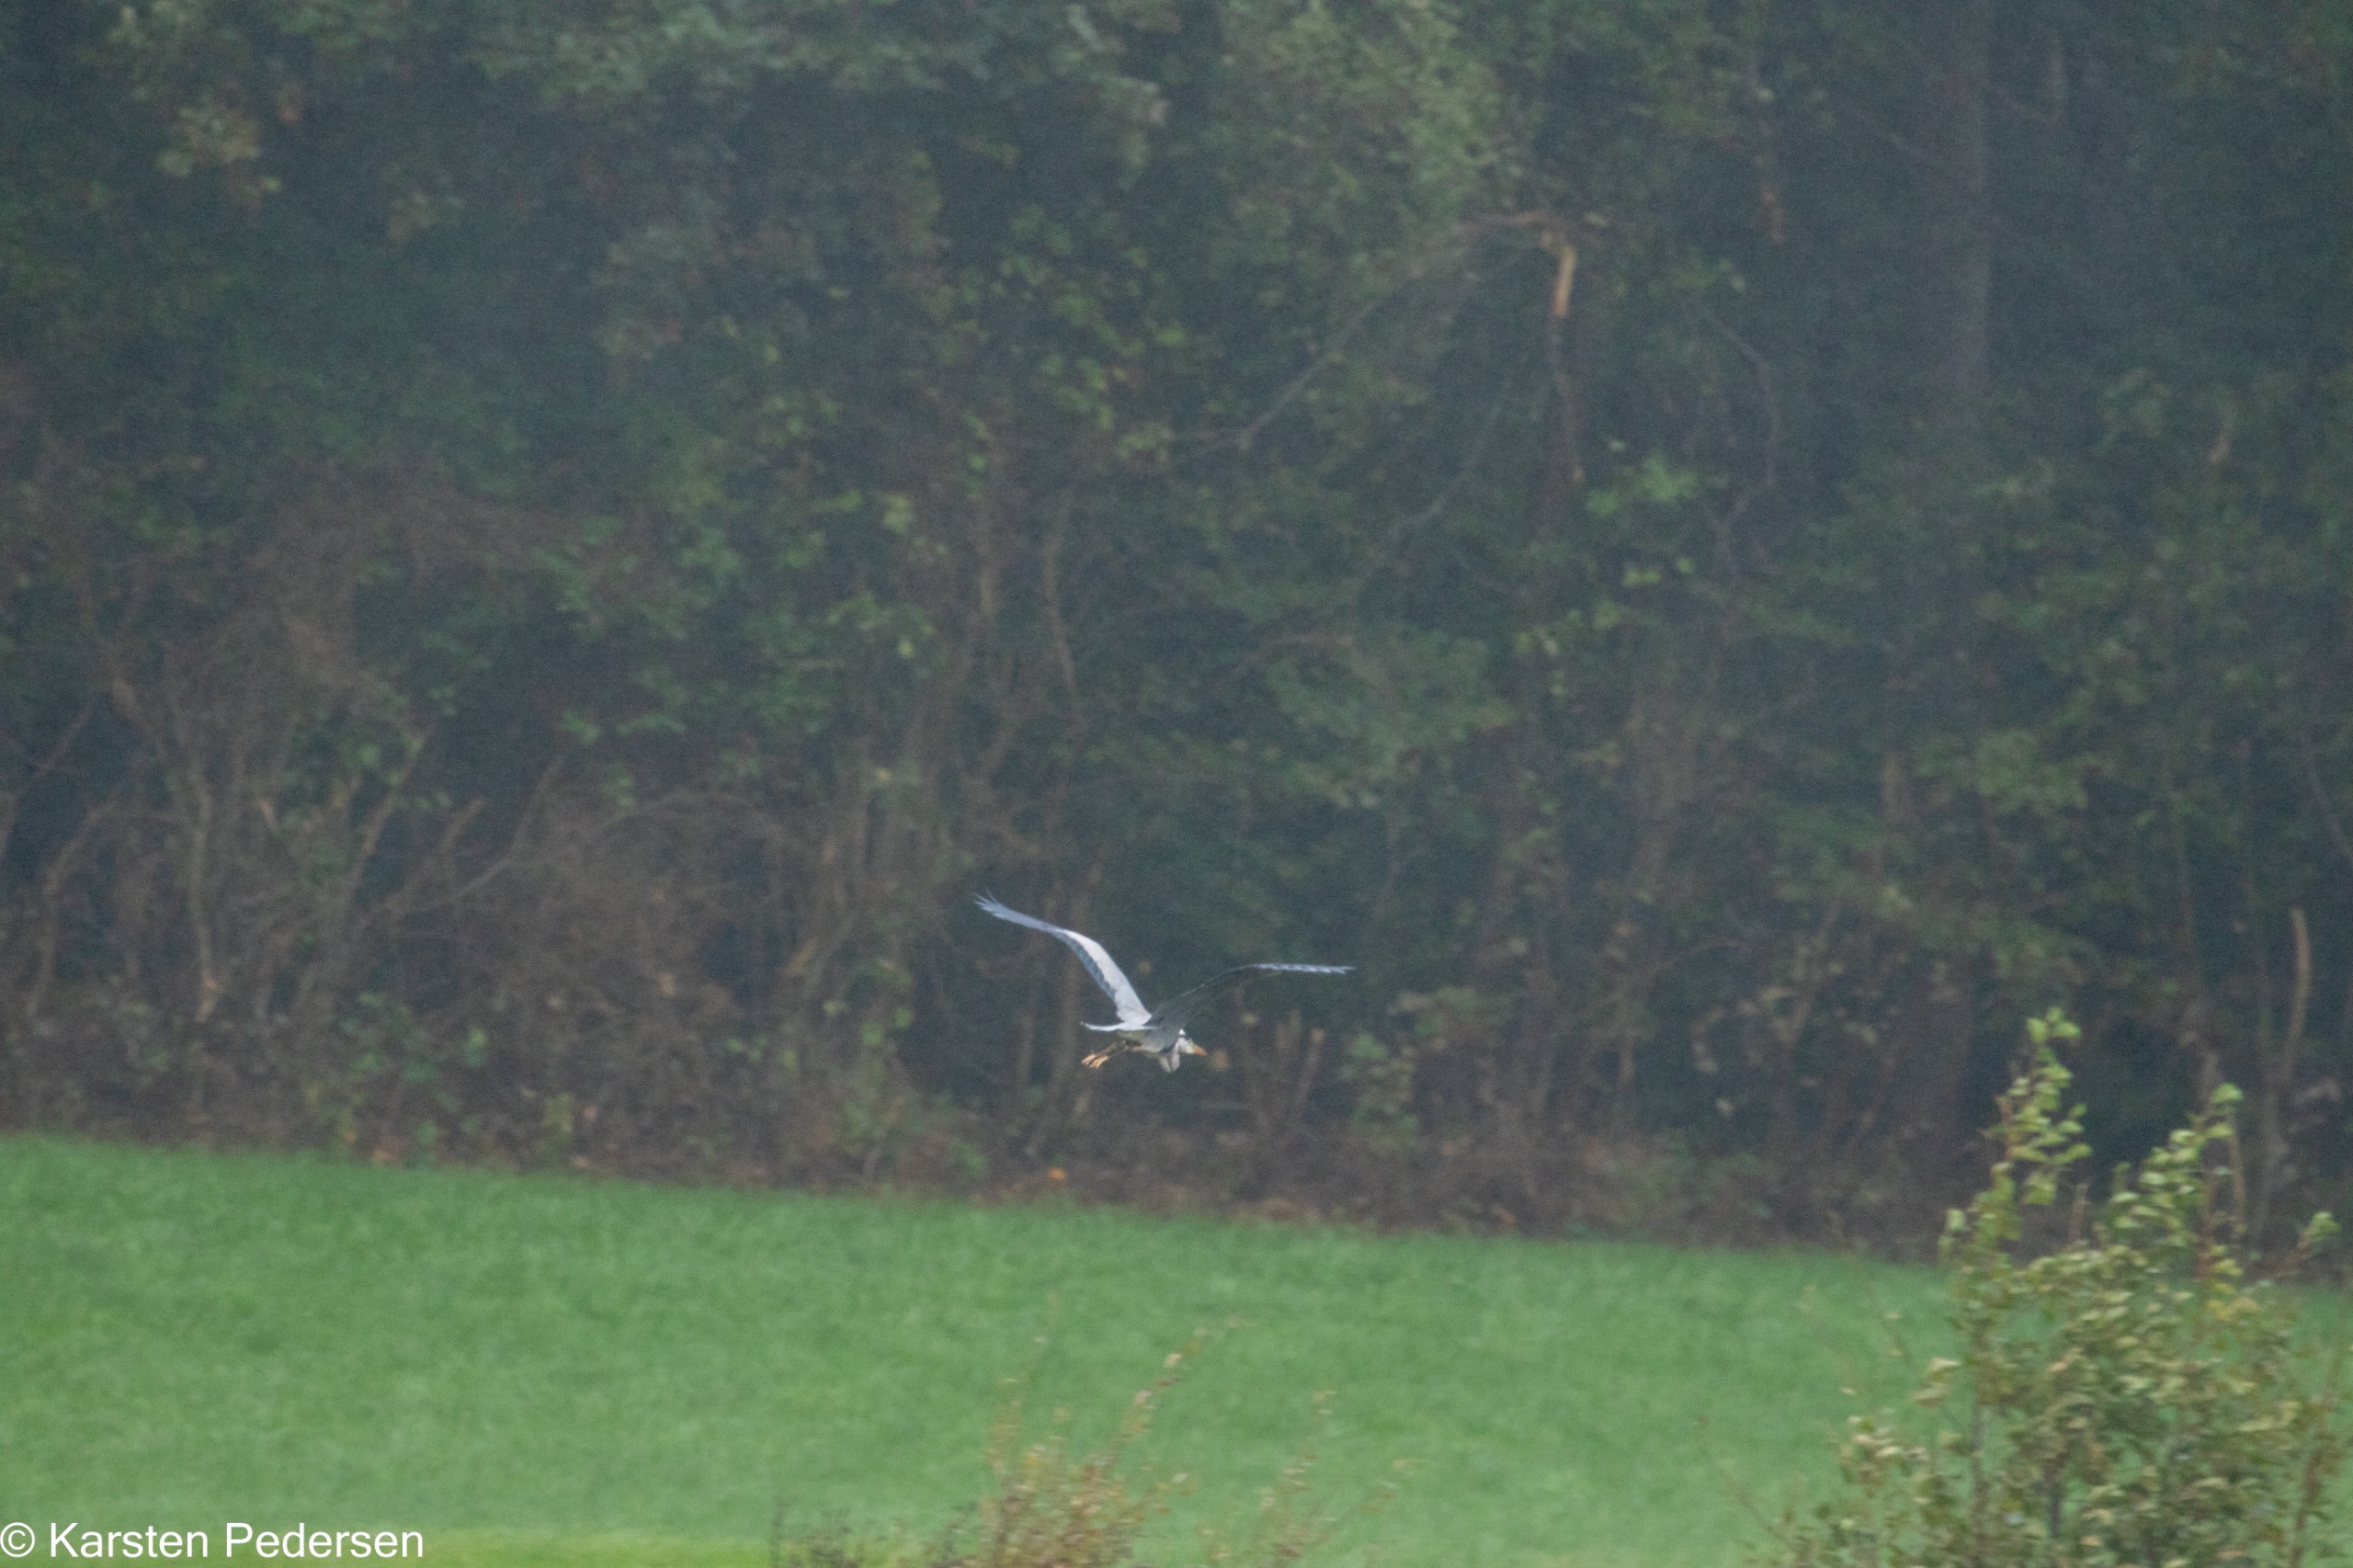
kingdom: Animalia
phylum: Chordata
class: Aves
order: Pelecaniformes
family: Ardeidae
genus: Ardea
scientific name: Ardea cinerea
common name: Fiskehejre
